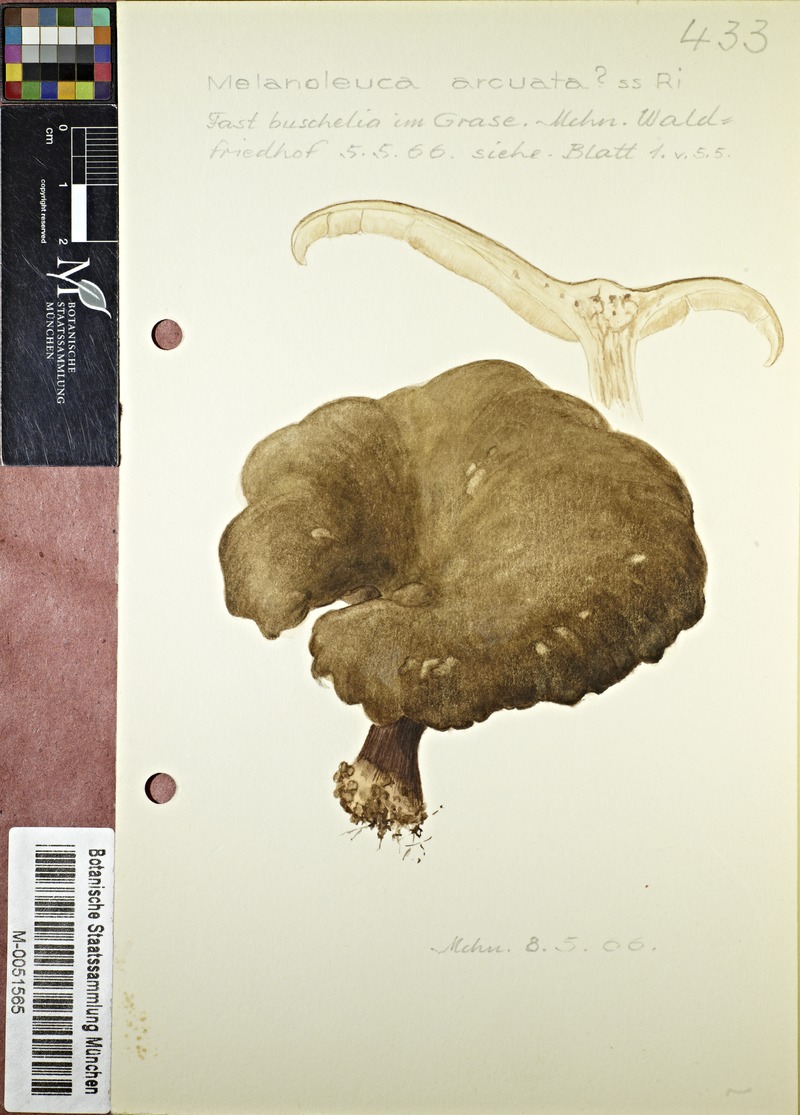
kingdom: Fungi
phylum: Basidiomycota
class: Agaricomycetes
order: Agaricales
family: Tricholomataceae
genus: Melanoleuca
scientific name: Melanoleuca arcuata
